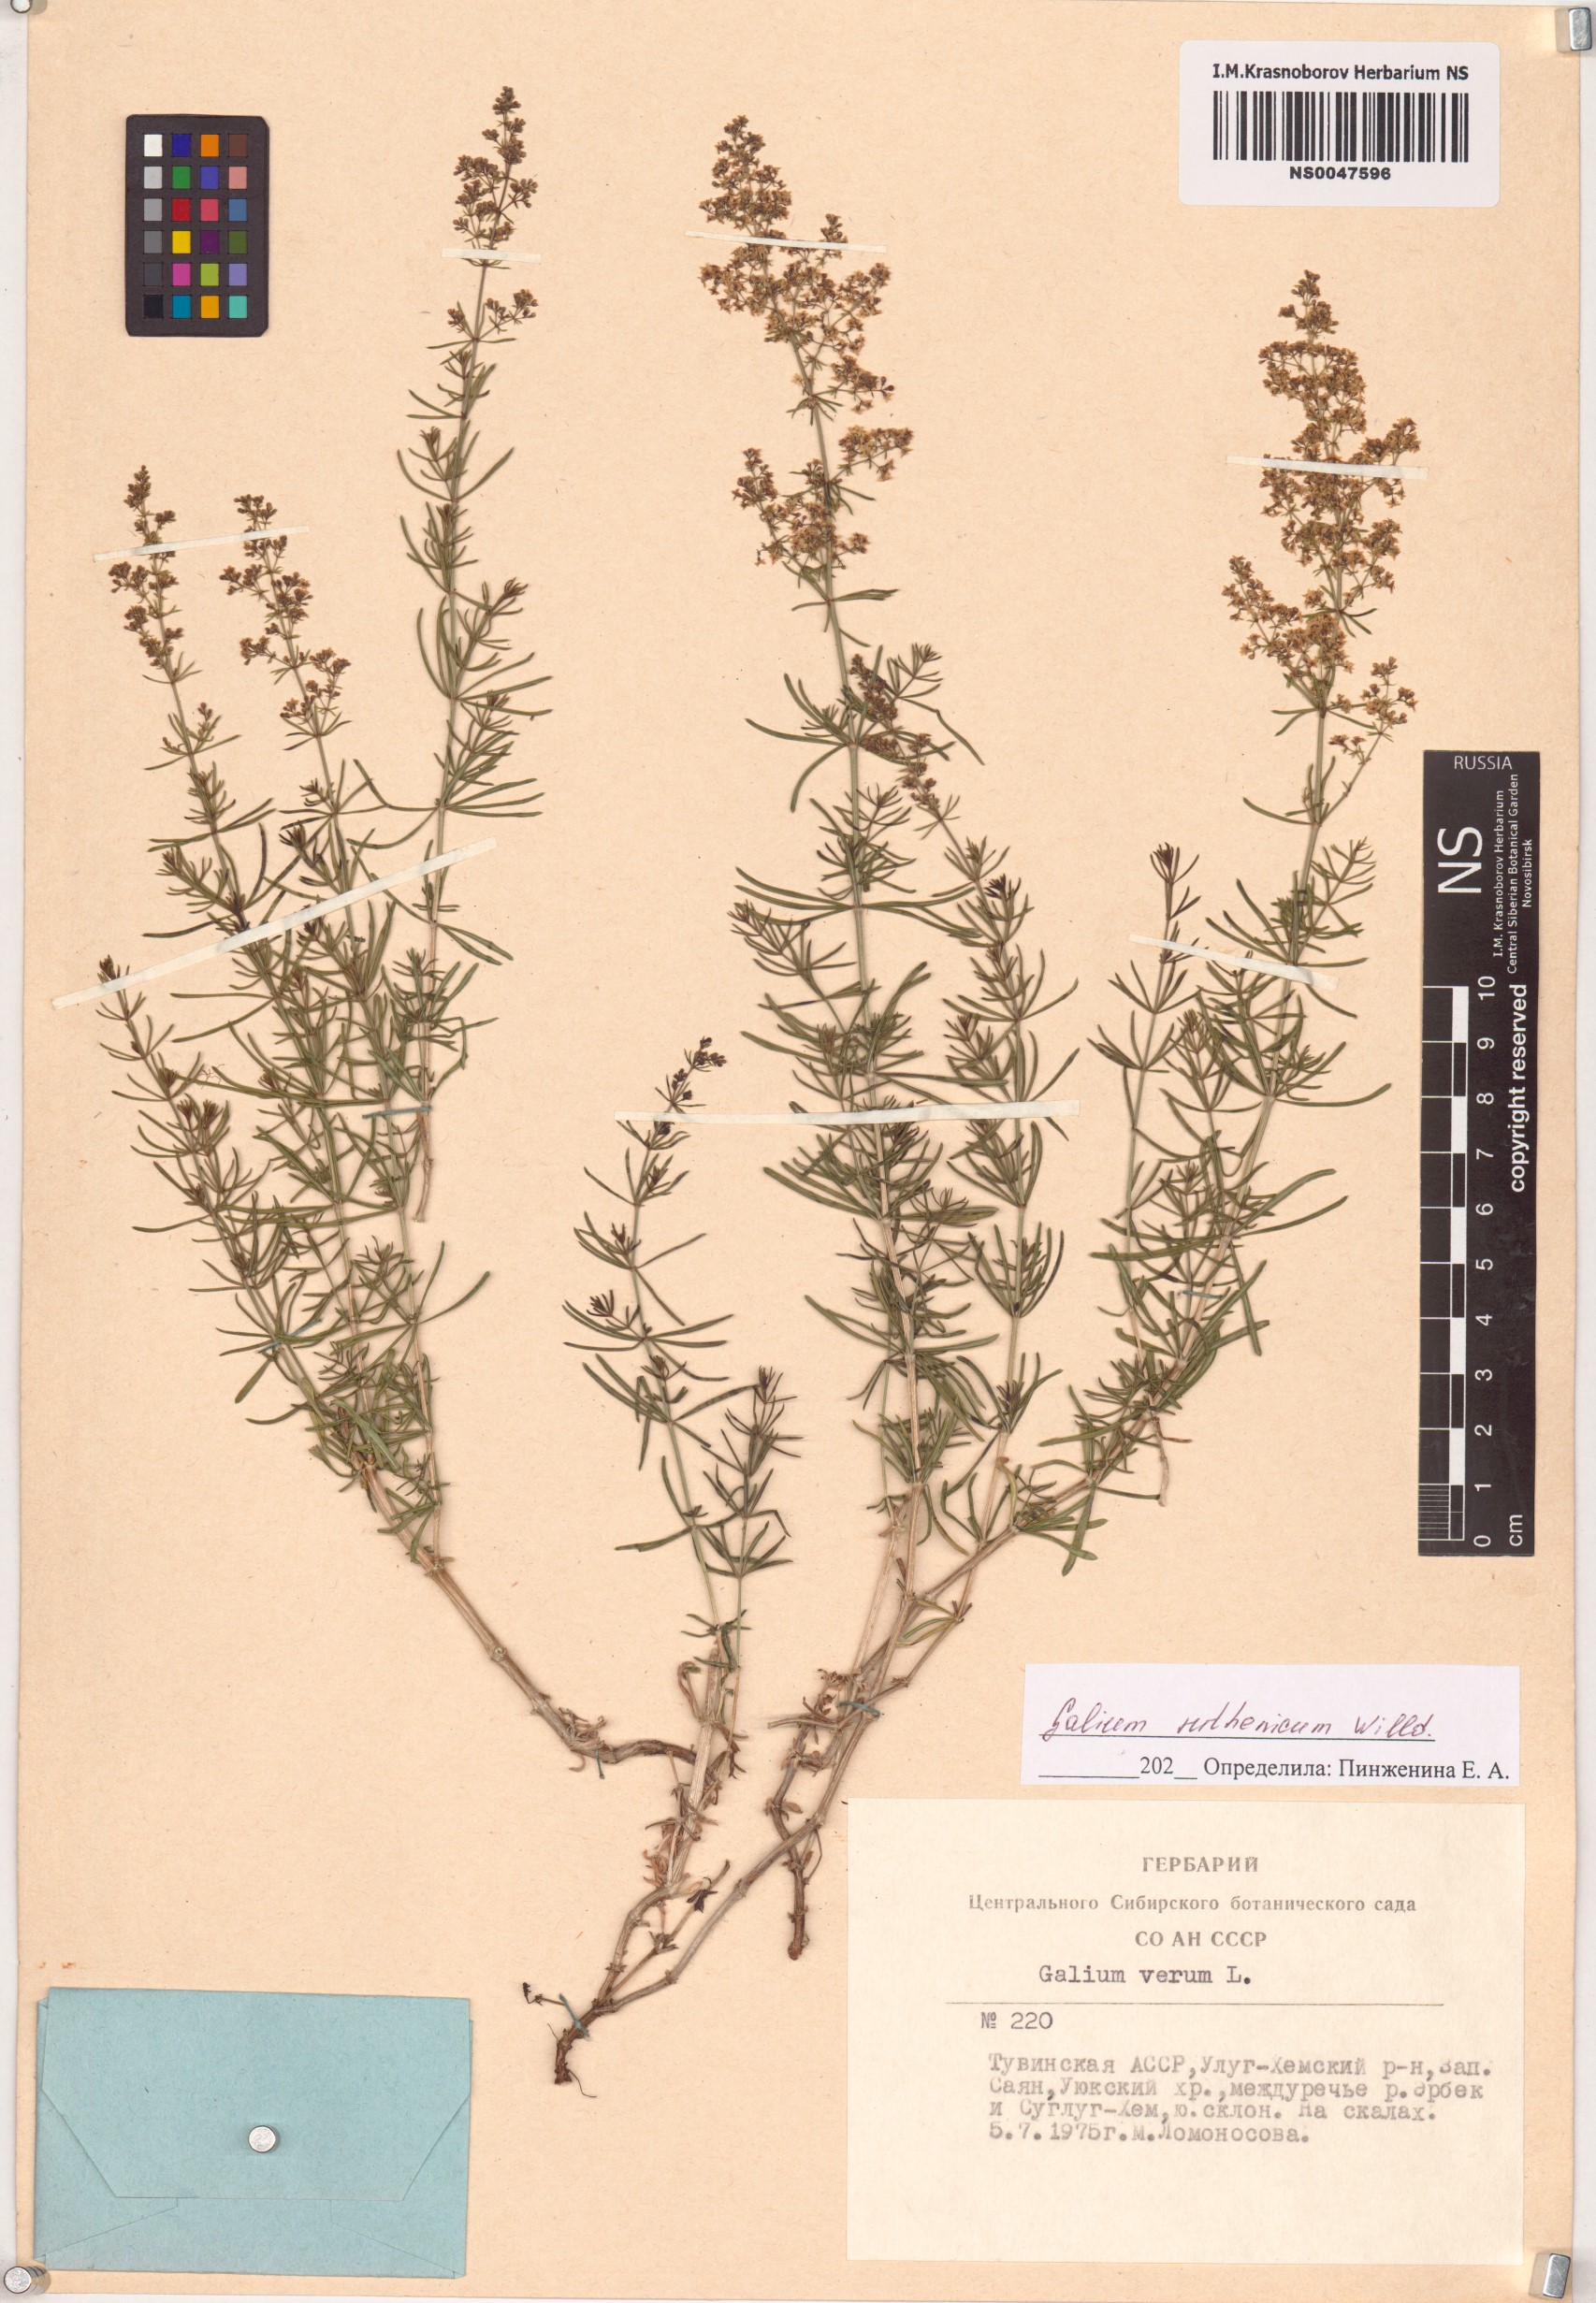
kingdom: Plantae
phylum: Tracheophyta
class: Magnoliopsida
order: Gentianales
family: Rubiaceae
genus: Galium
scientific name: Galium verum
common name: Lady's bedstraw
